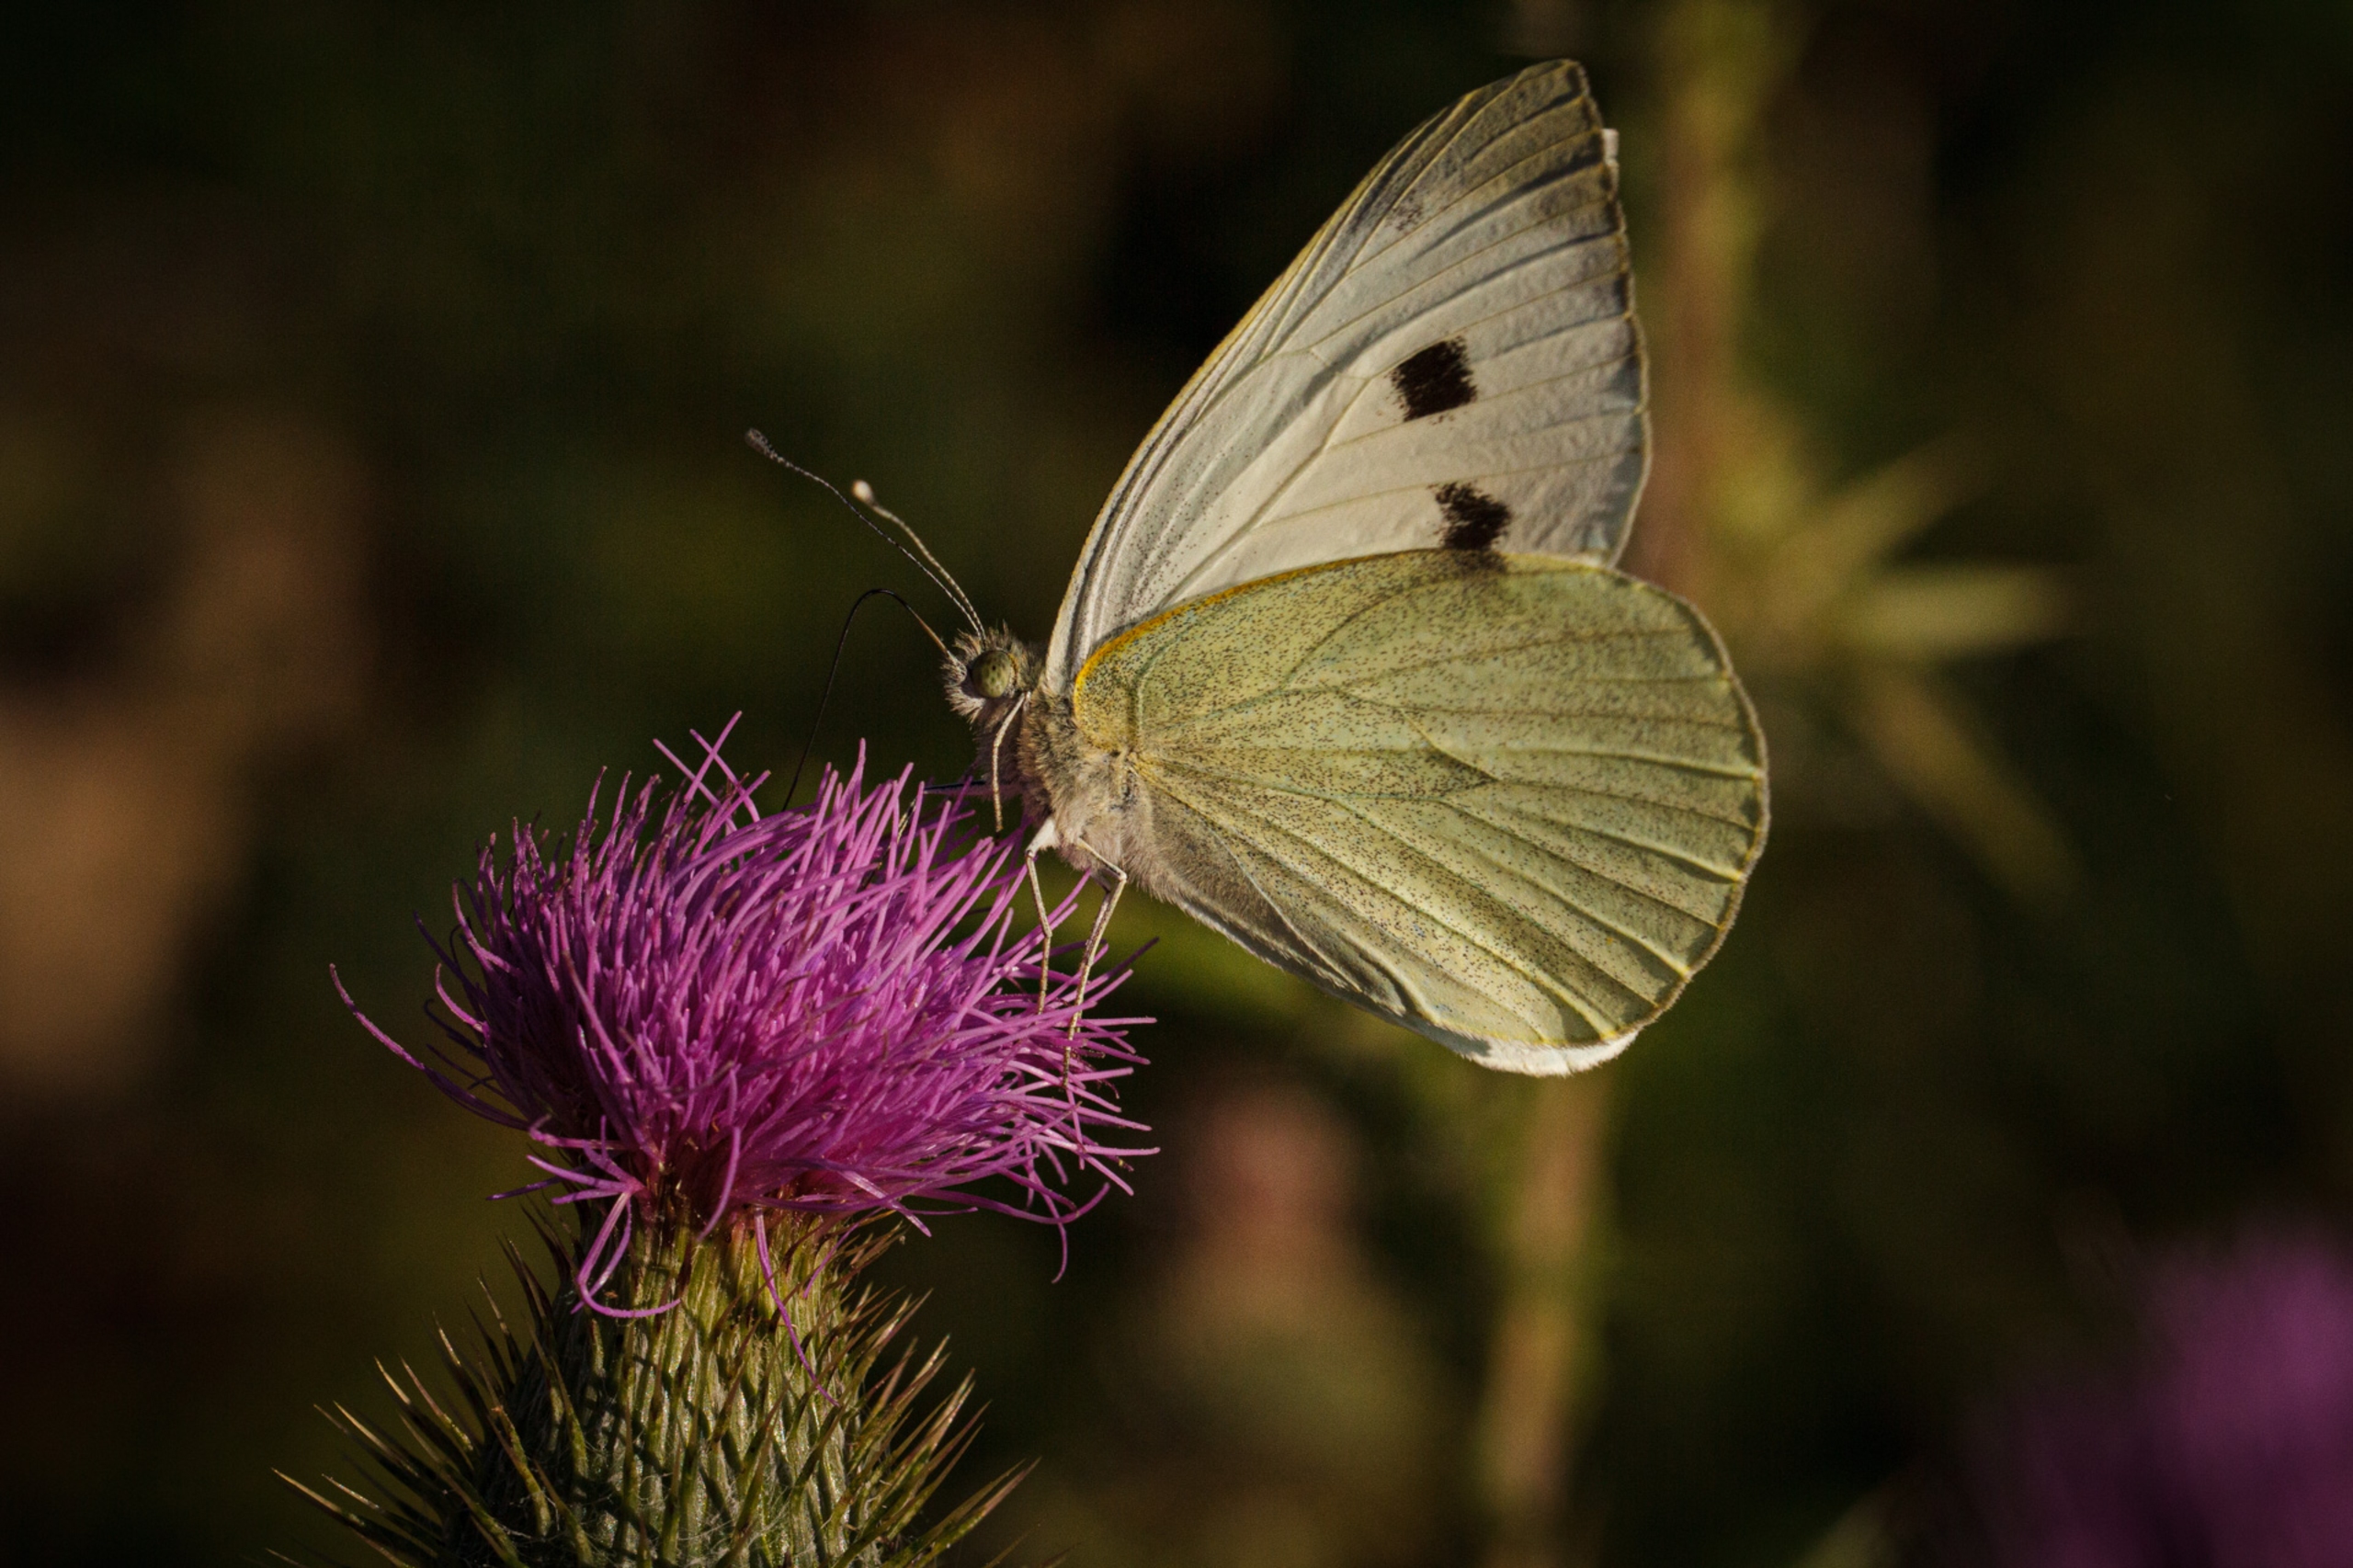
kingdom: Animalia
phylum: Arthropoda
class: Insecta
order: Lepidoptera
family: Pieridae
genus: Pieris
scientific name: Pieris brassicae
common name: Stor kålsommerfugl
